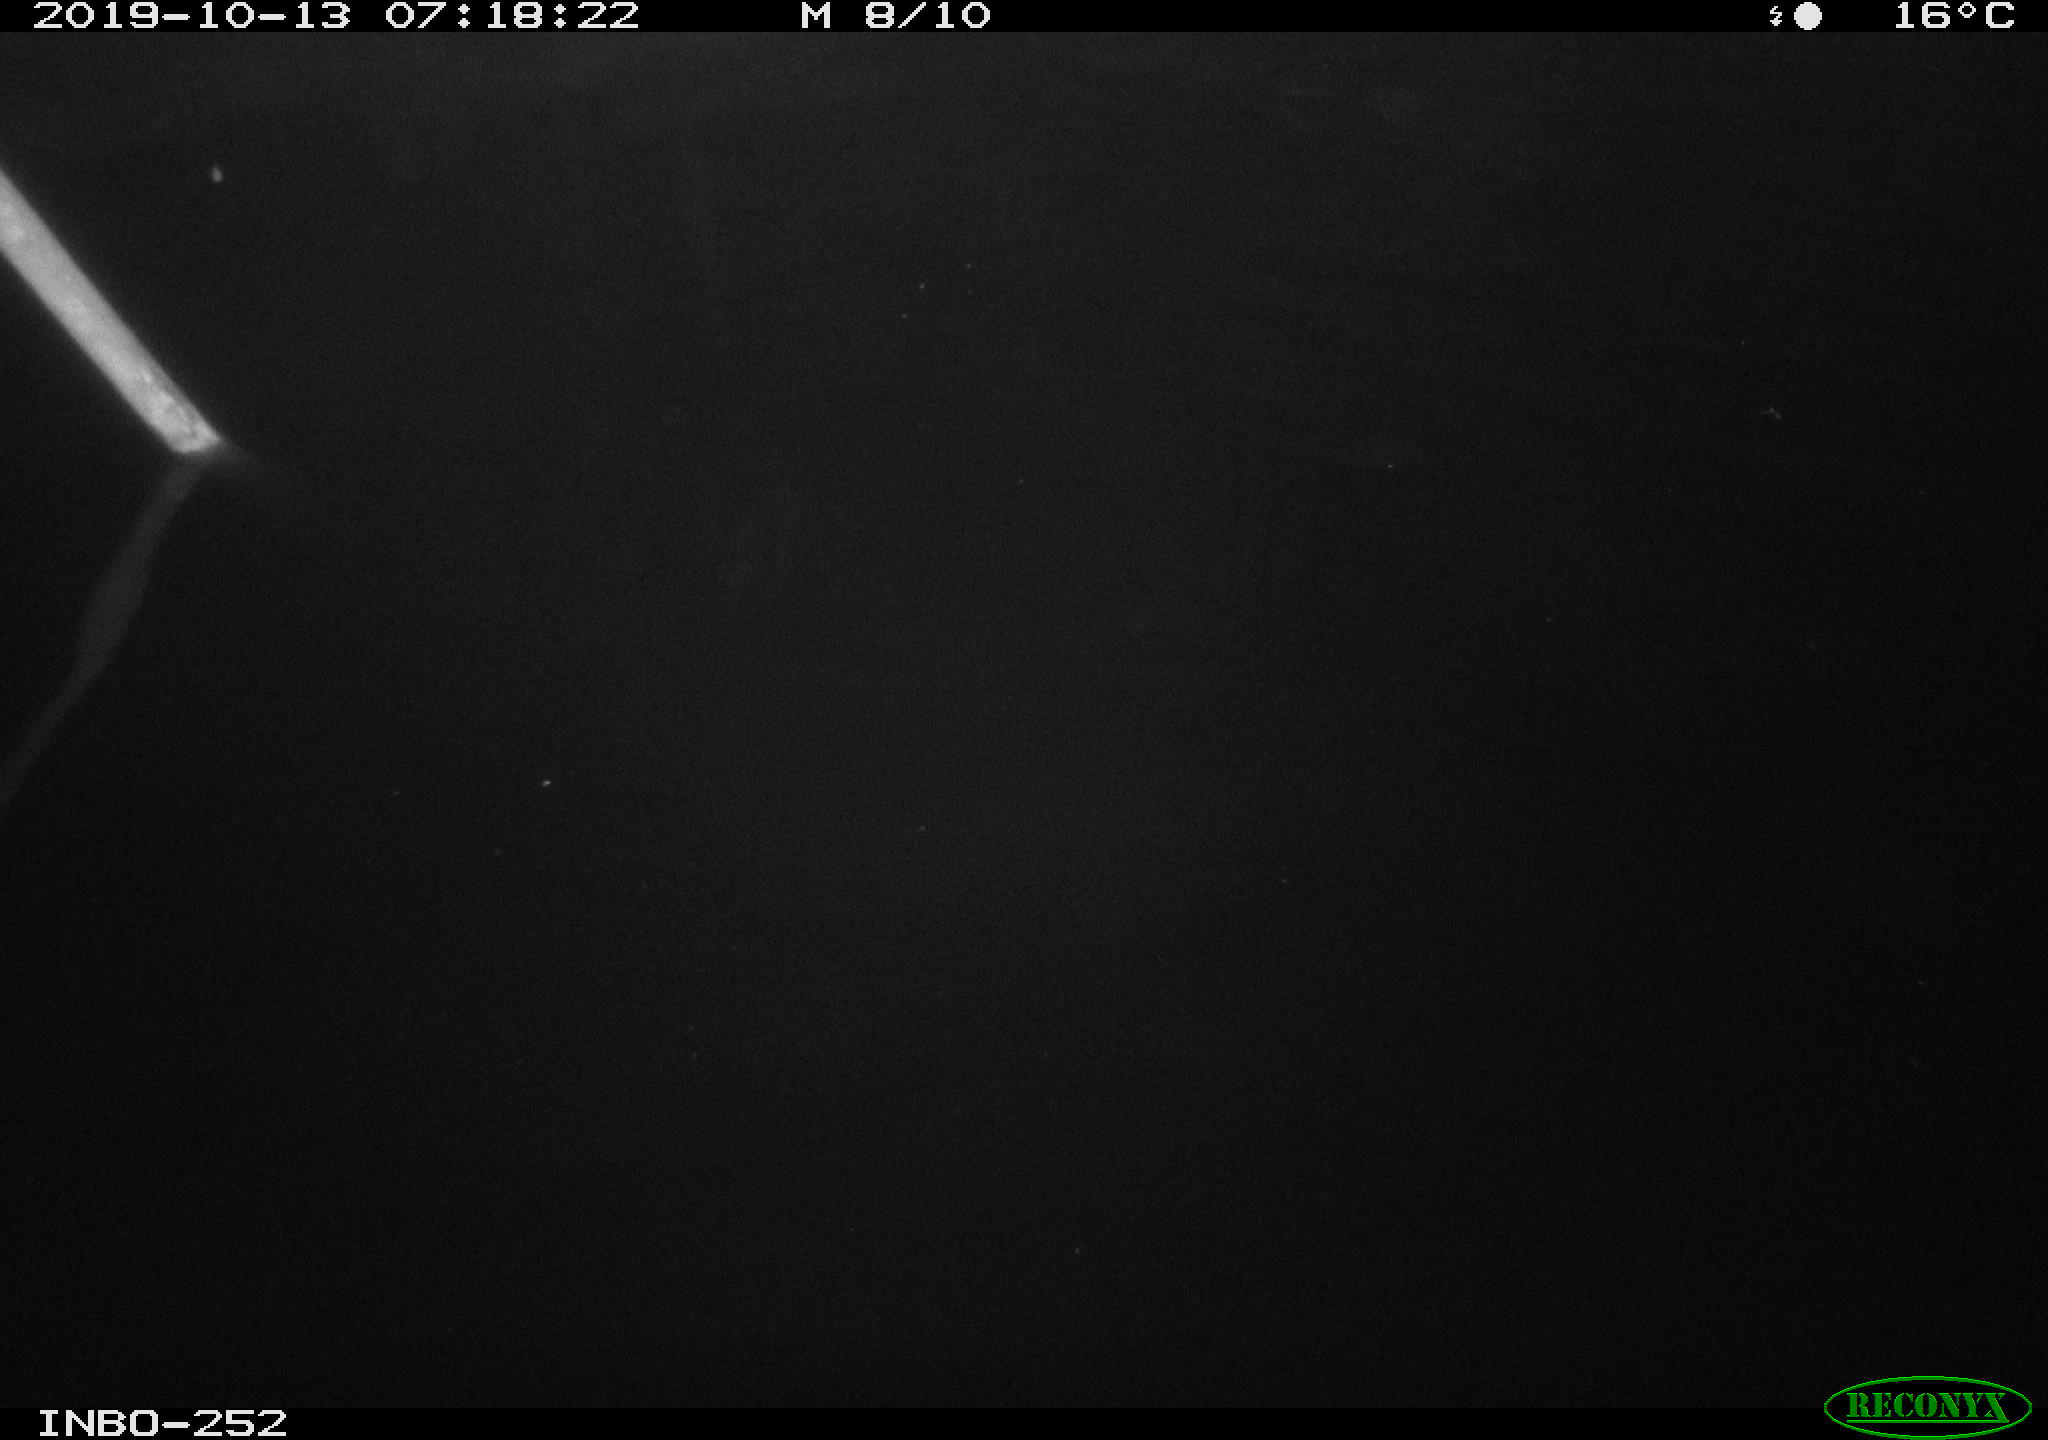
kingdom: Animalia
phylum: Chordata
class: Aves
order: Anseriformes
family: Anatidae
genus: Anas
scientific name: Anas platyrhynchos
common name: Mallard
